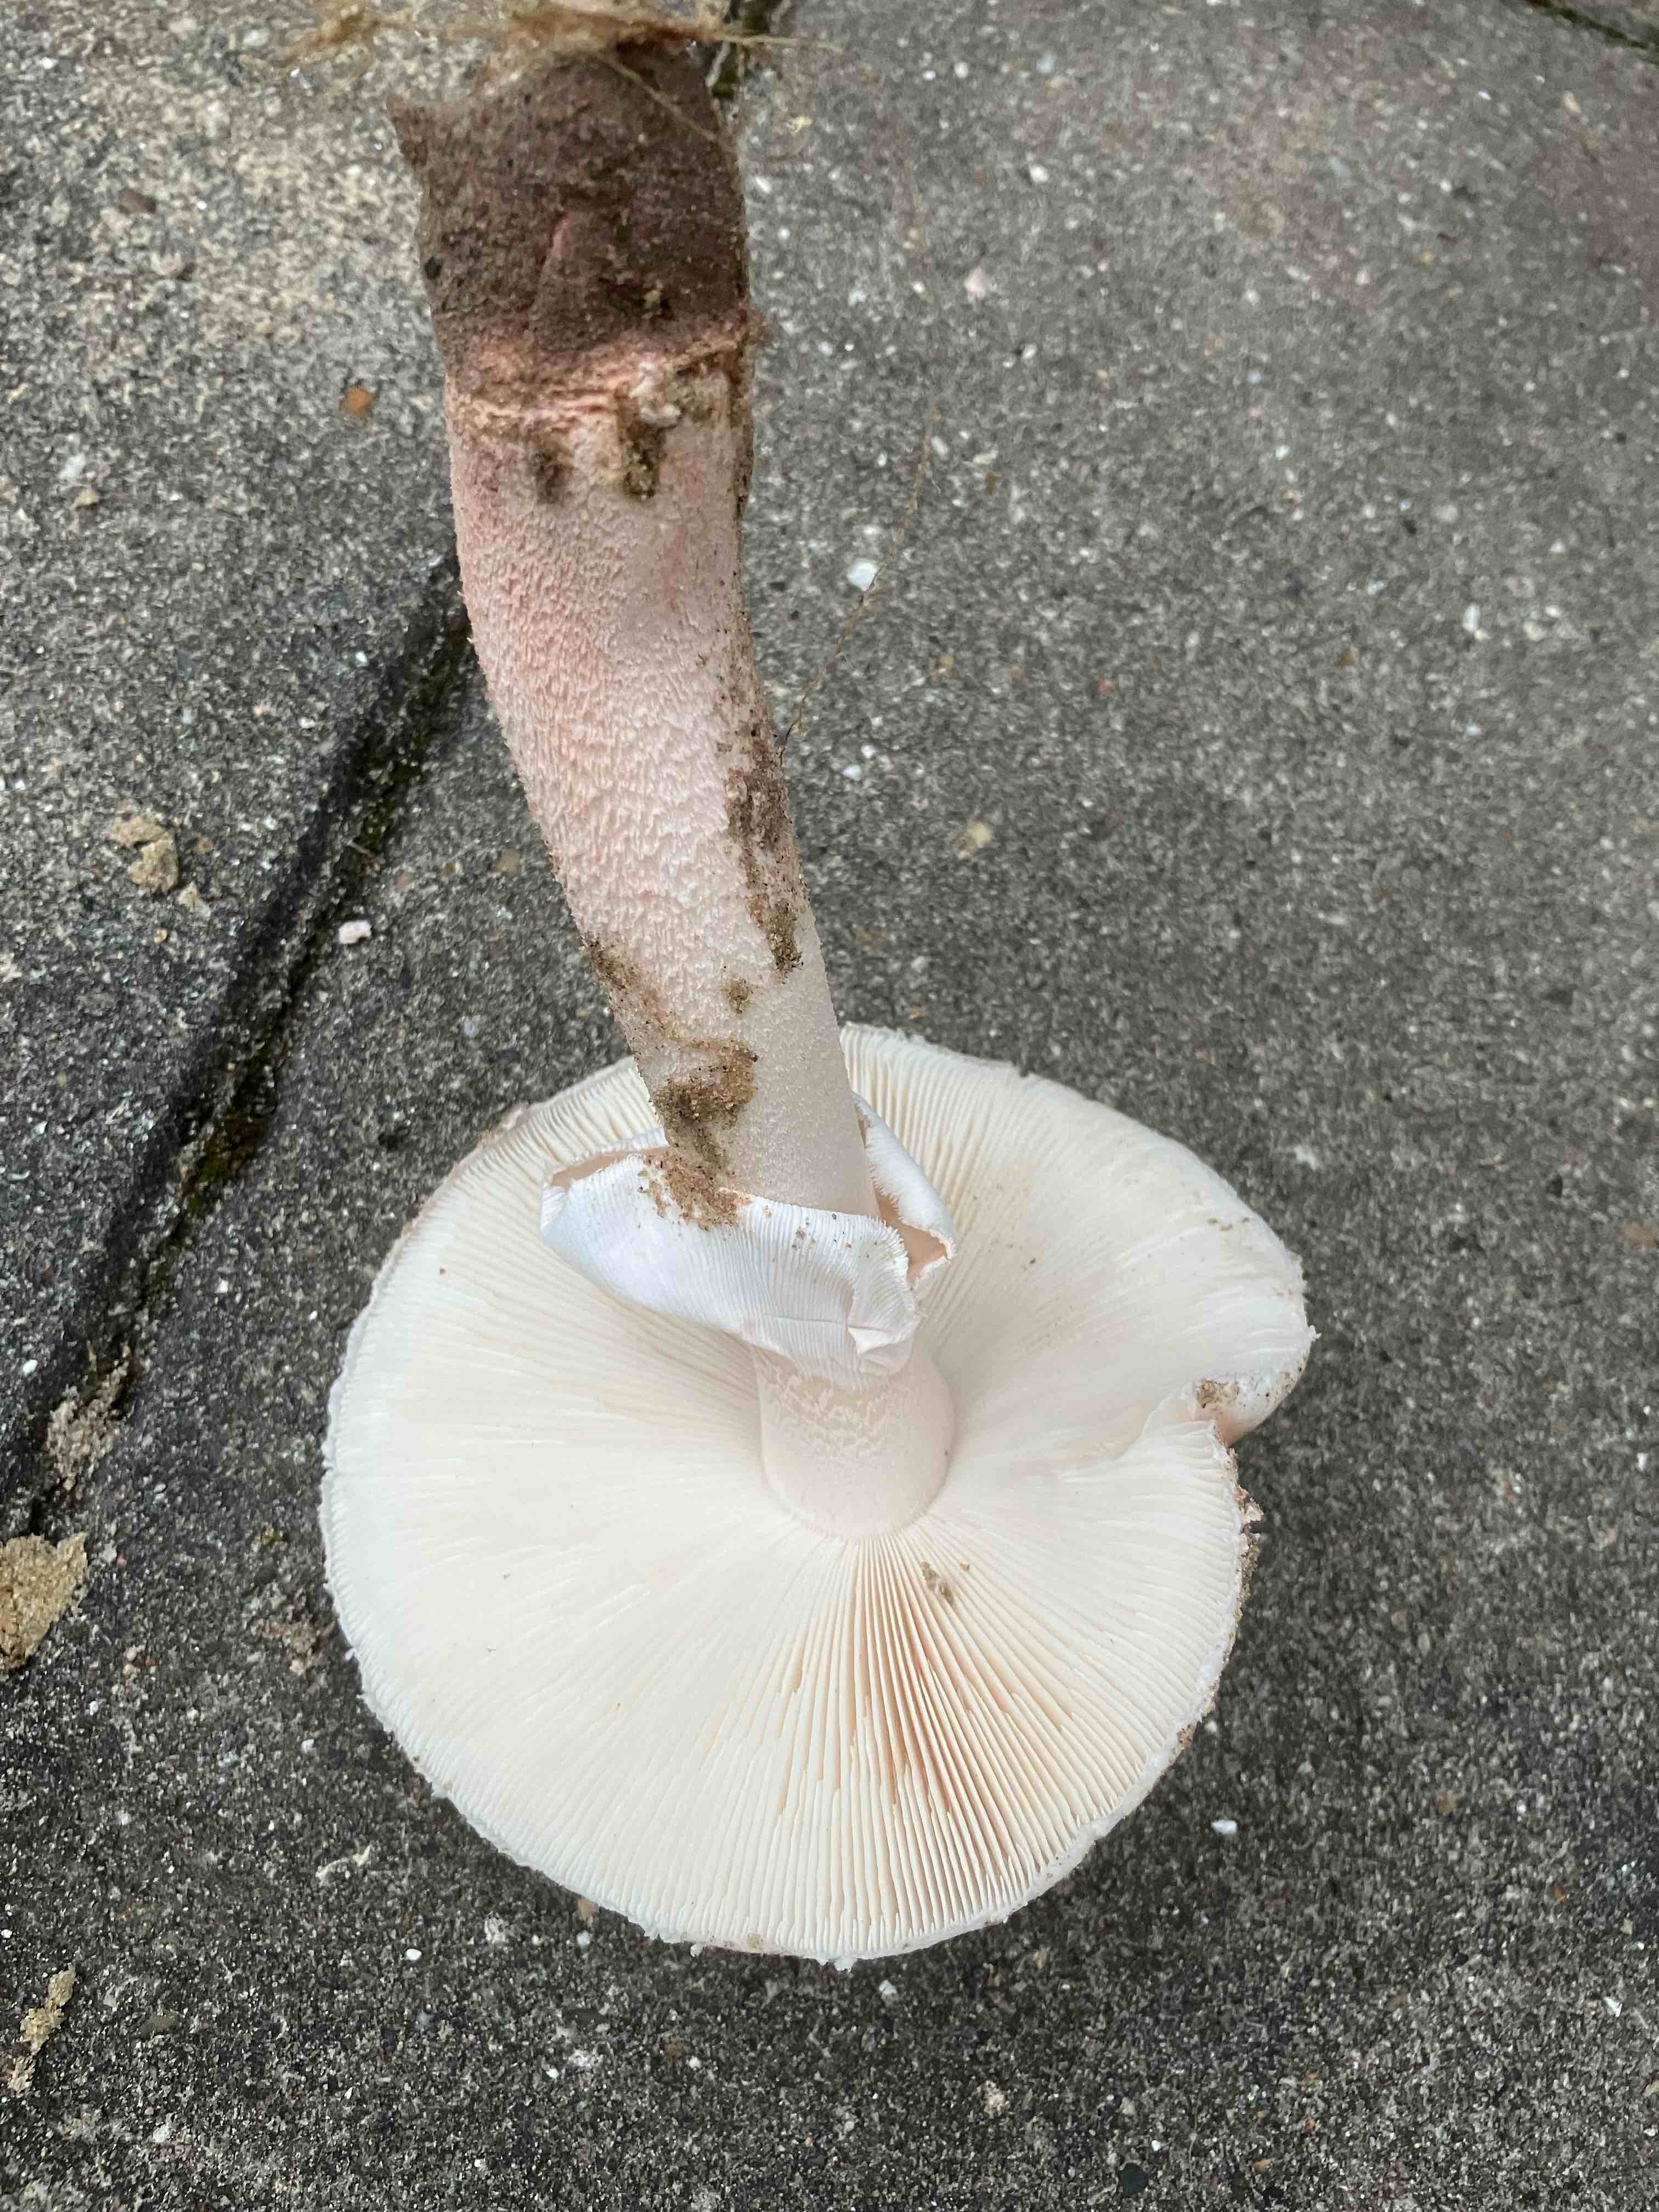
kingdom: Fungi
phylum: Basidiomycota
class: Agaricomycetes
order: Agaricales
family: Amanitaceae
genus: Amanita
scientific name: Amanita rubescens
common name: rødmende fluesvamp
